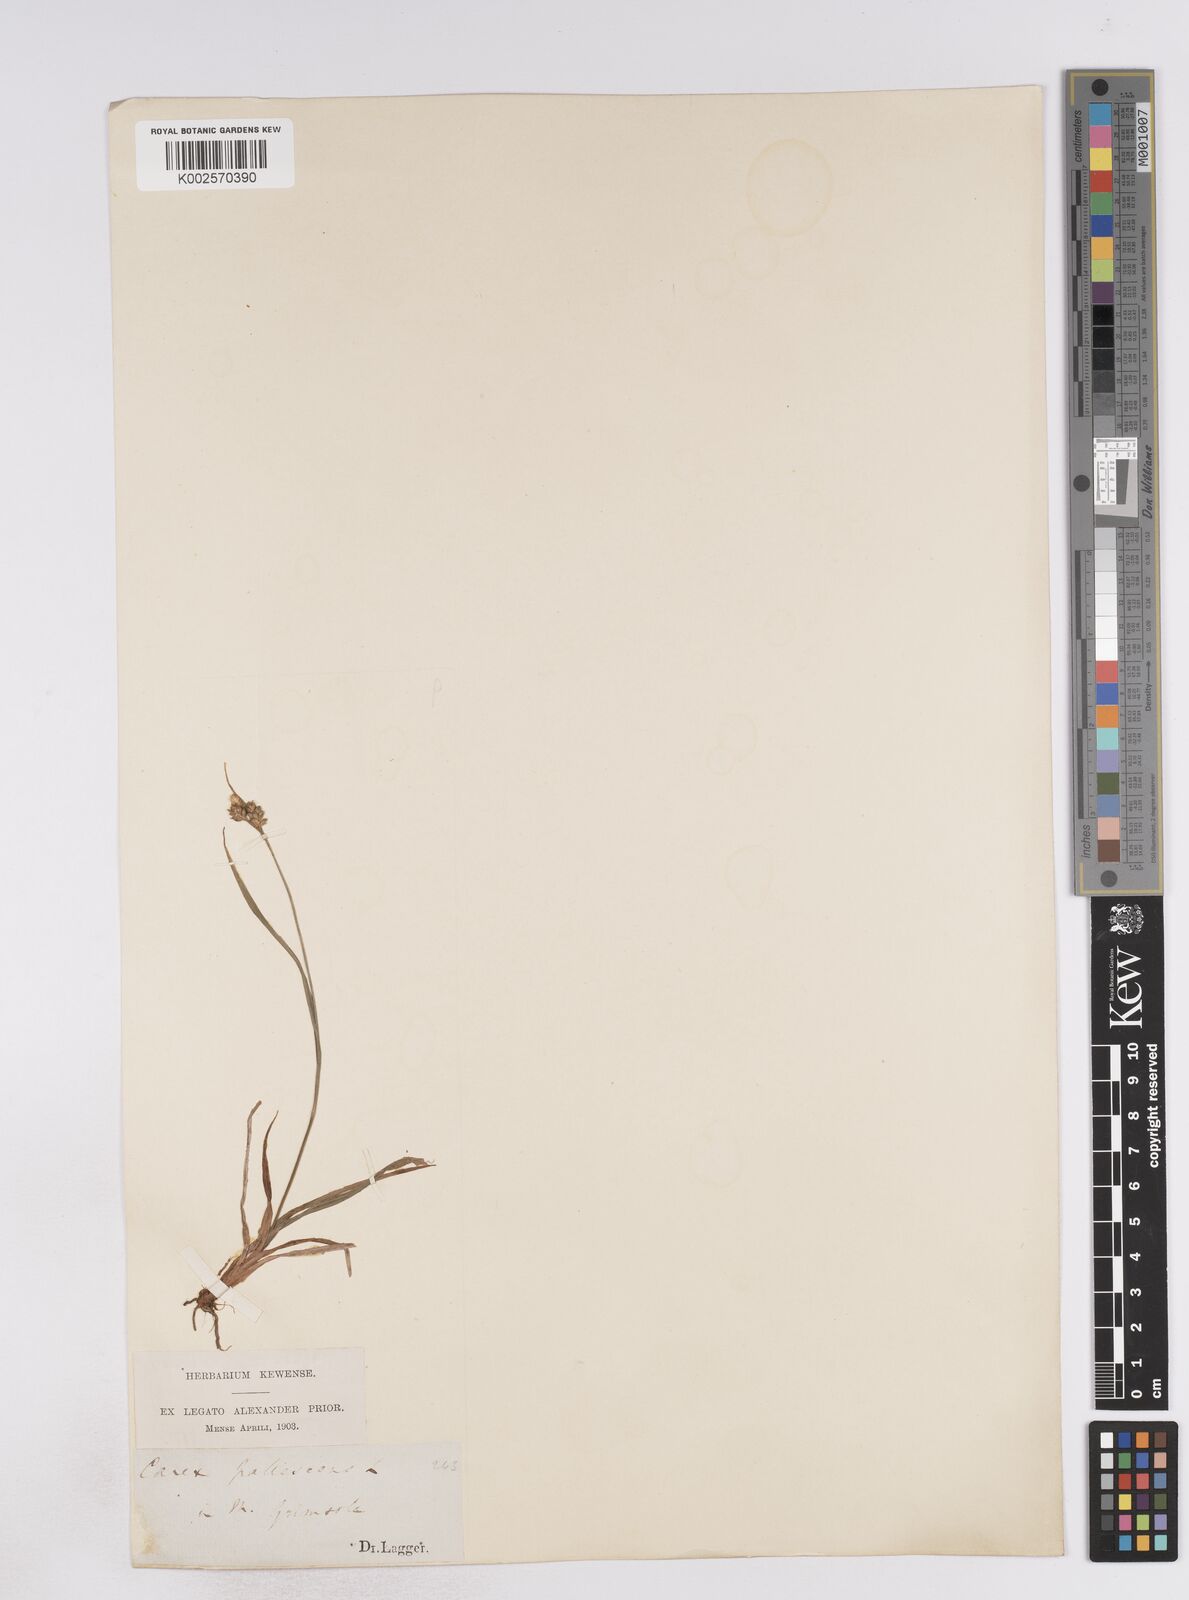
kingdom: Plantae
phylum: Tracheophyta
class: Liliopsida
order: Poales
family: Cyperaceae
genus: Carex
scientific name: Carex pallescens
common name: Pale sedge
